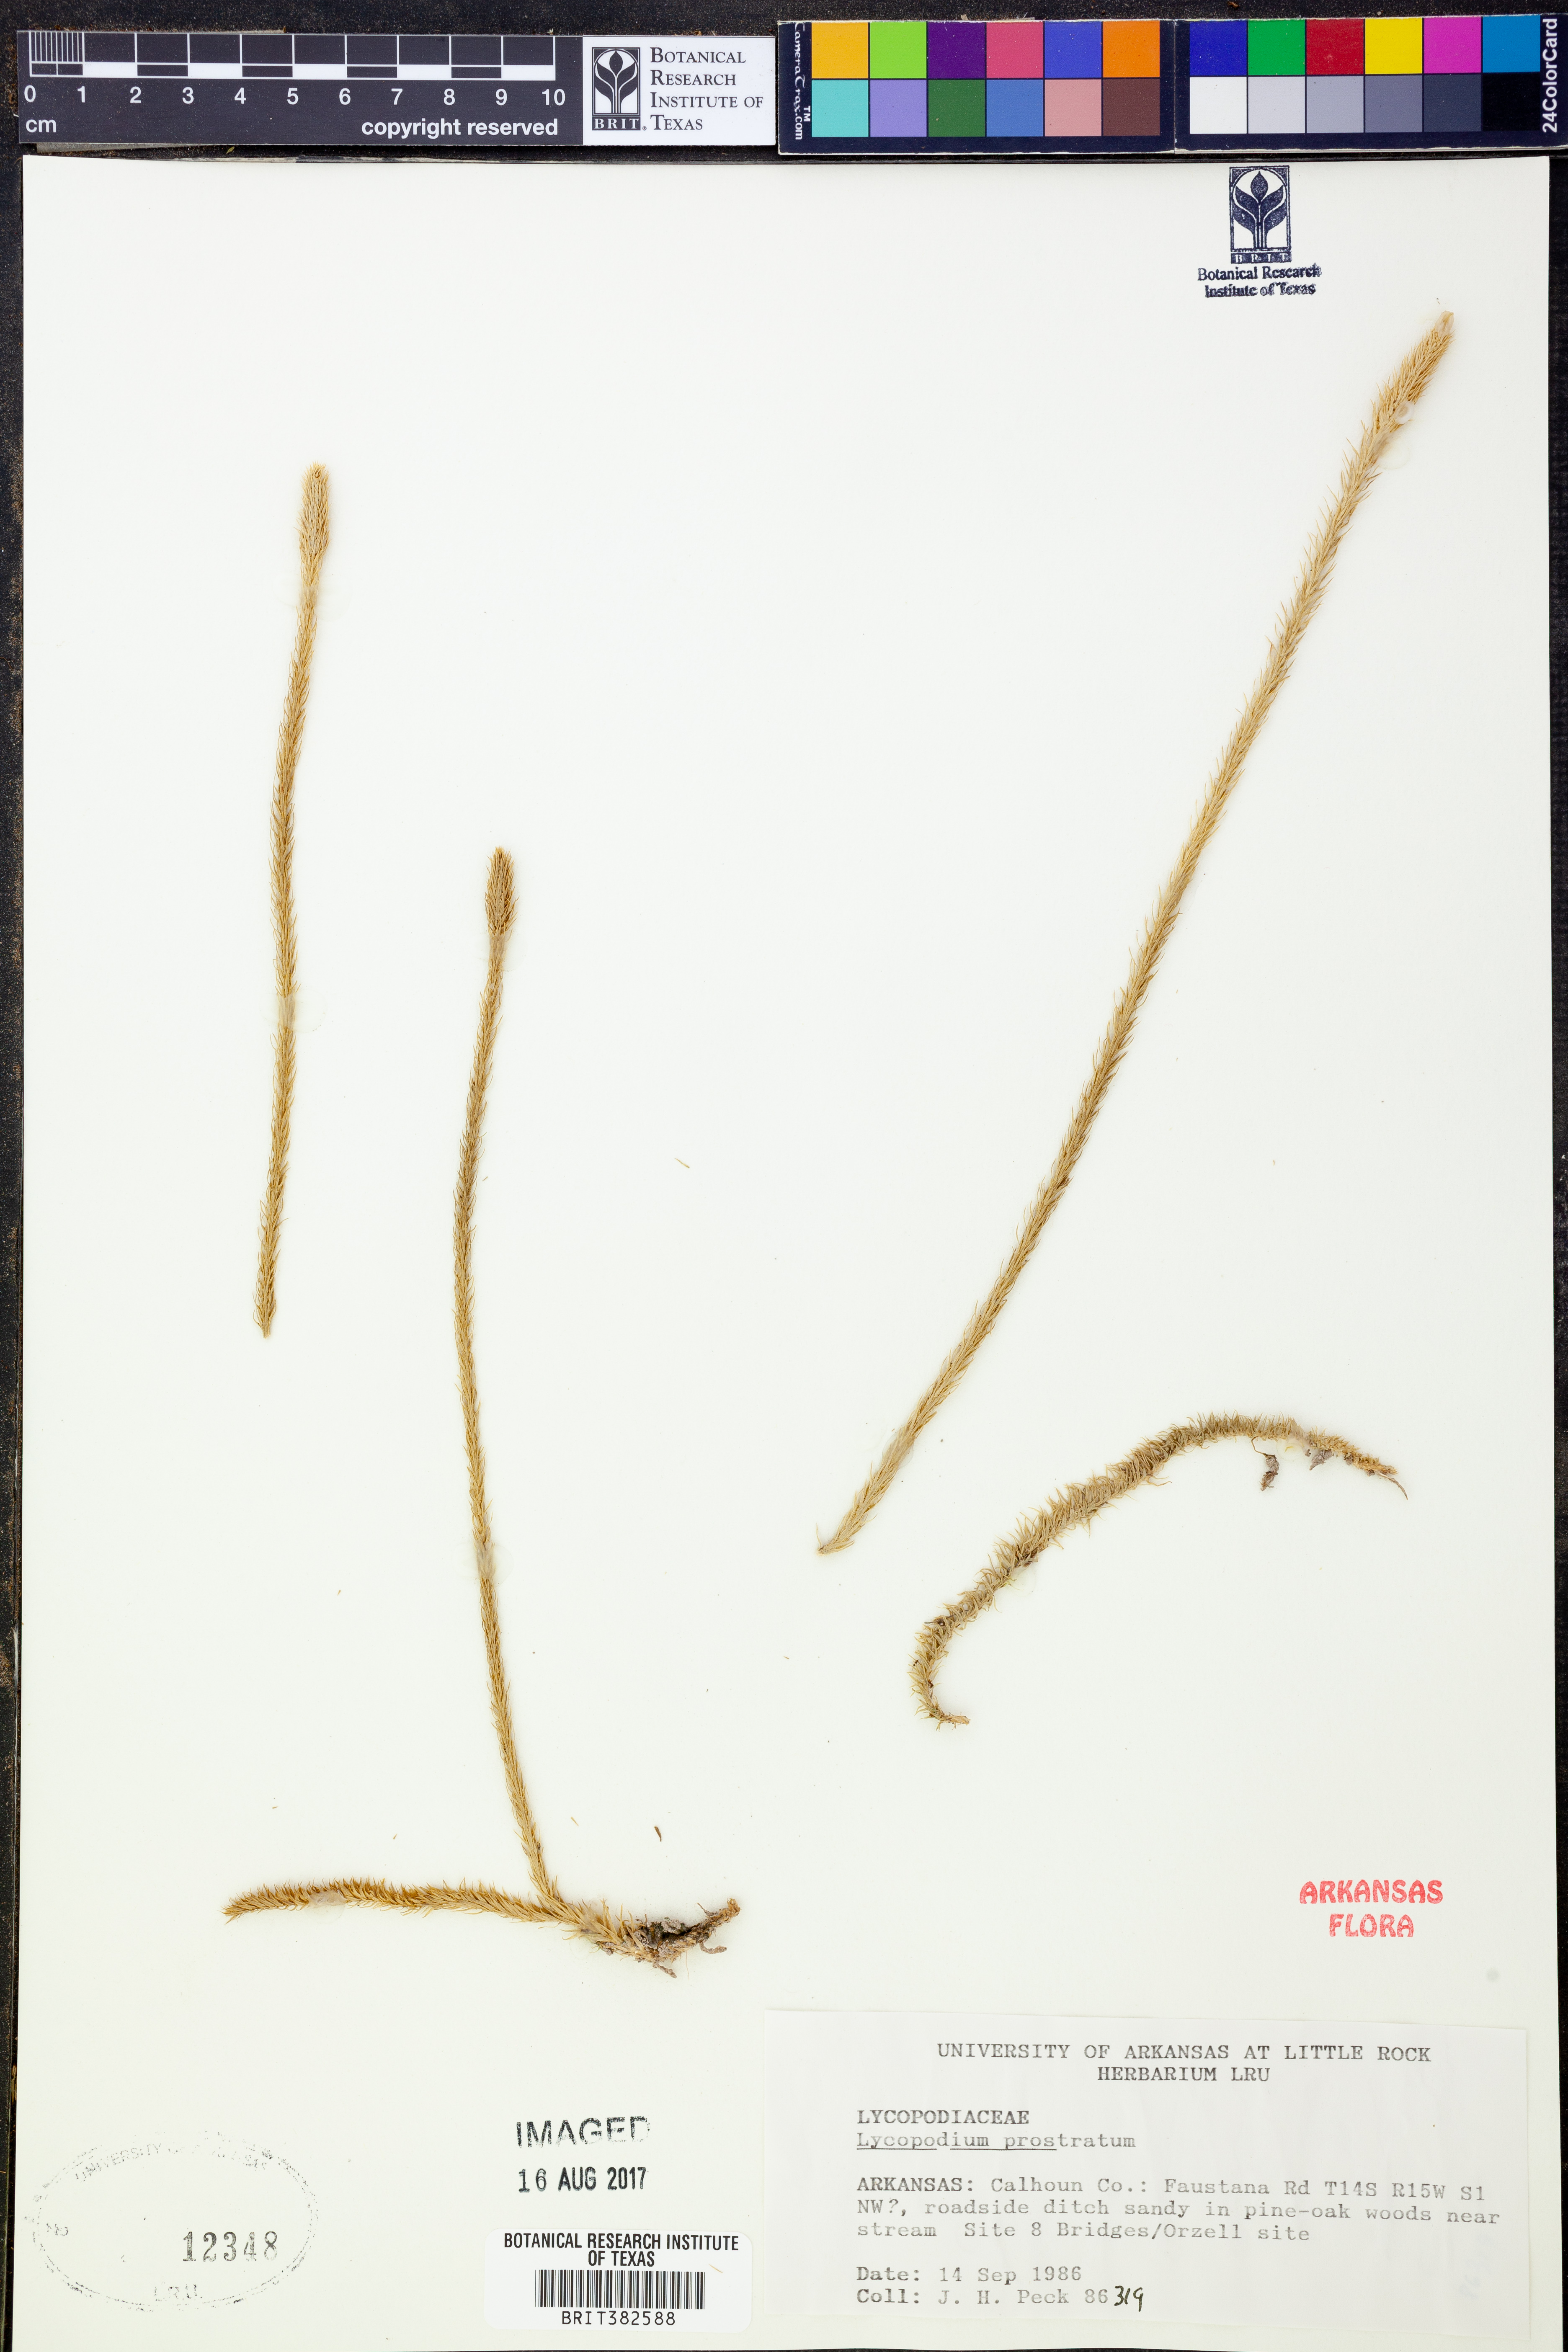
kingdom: Plantae
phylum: Tracheophyta
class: Lycopodiopsida
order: Lycopodiales
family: Lycopodiaceae
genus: Lycopodiella
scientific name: Lycopodiella prostrata
